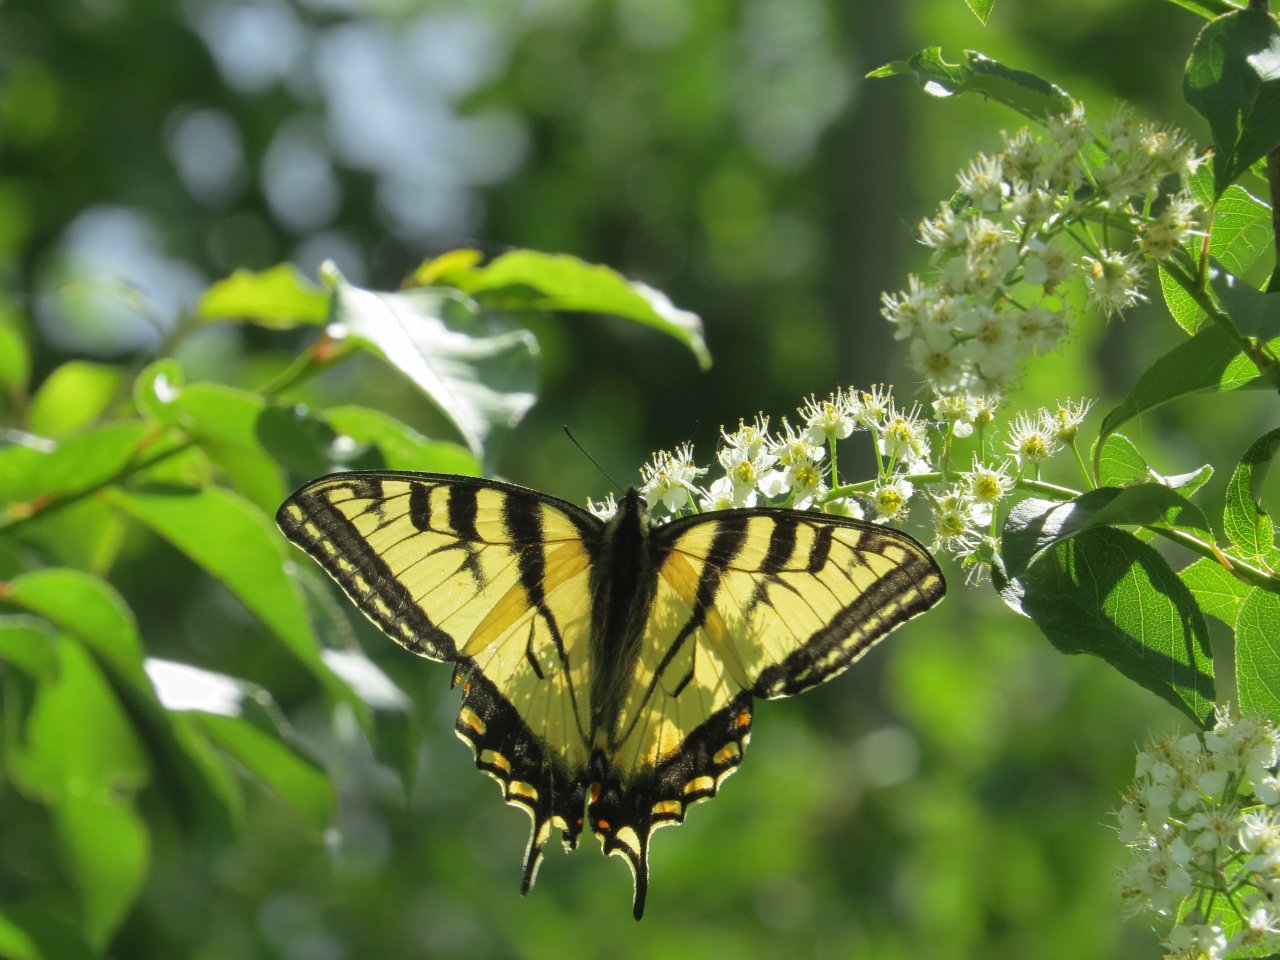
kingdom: Animalia
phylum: Arthropoda
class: Insecta
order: Lepidoptera
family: Papilionidae
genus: Pterourus
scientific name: Pterourus canadensis
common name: Canadian Tiger Swallowtail
